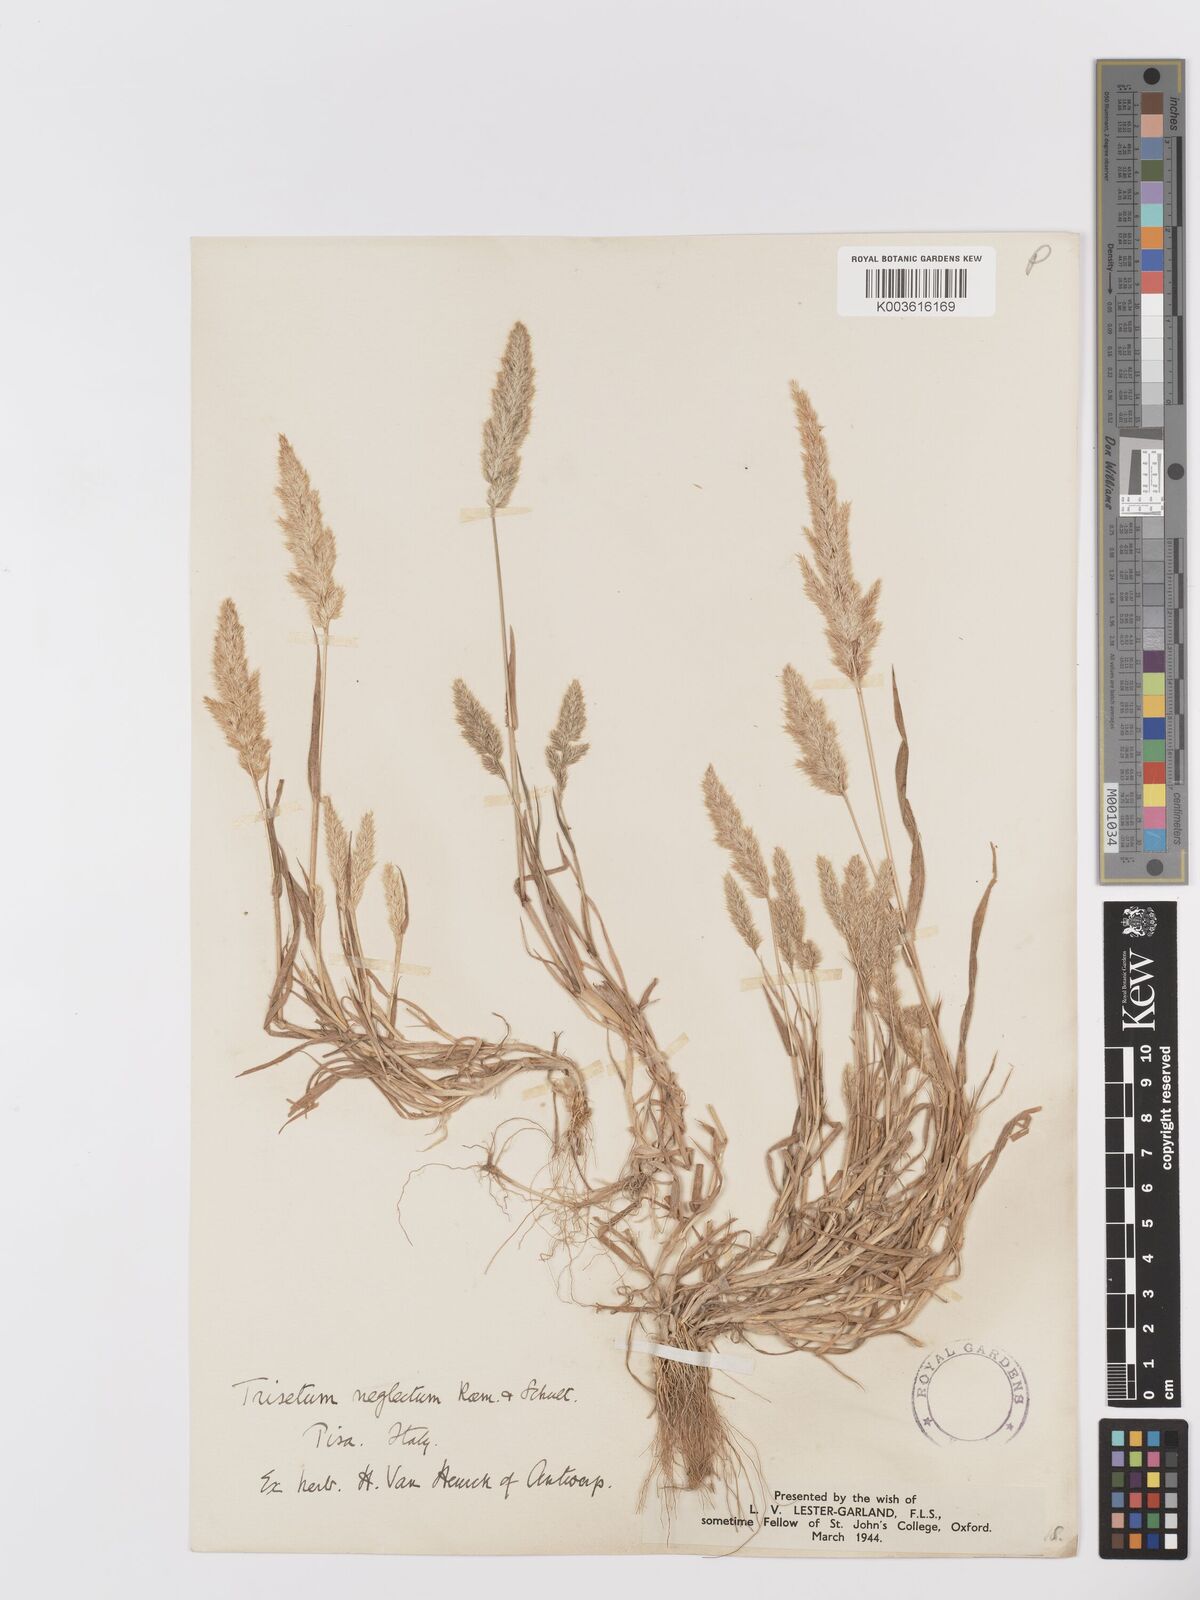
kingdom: Plantae
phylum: Tracheophyta
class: Liliopsida
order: Poales
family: Poaceae
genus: Trisetaria
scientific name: Trisetaria panicea
